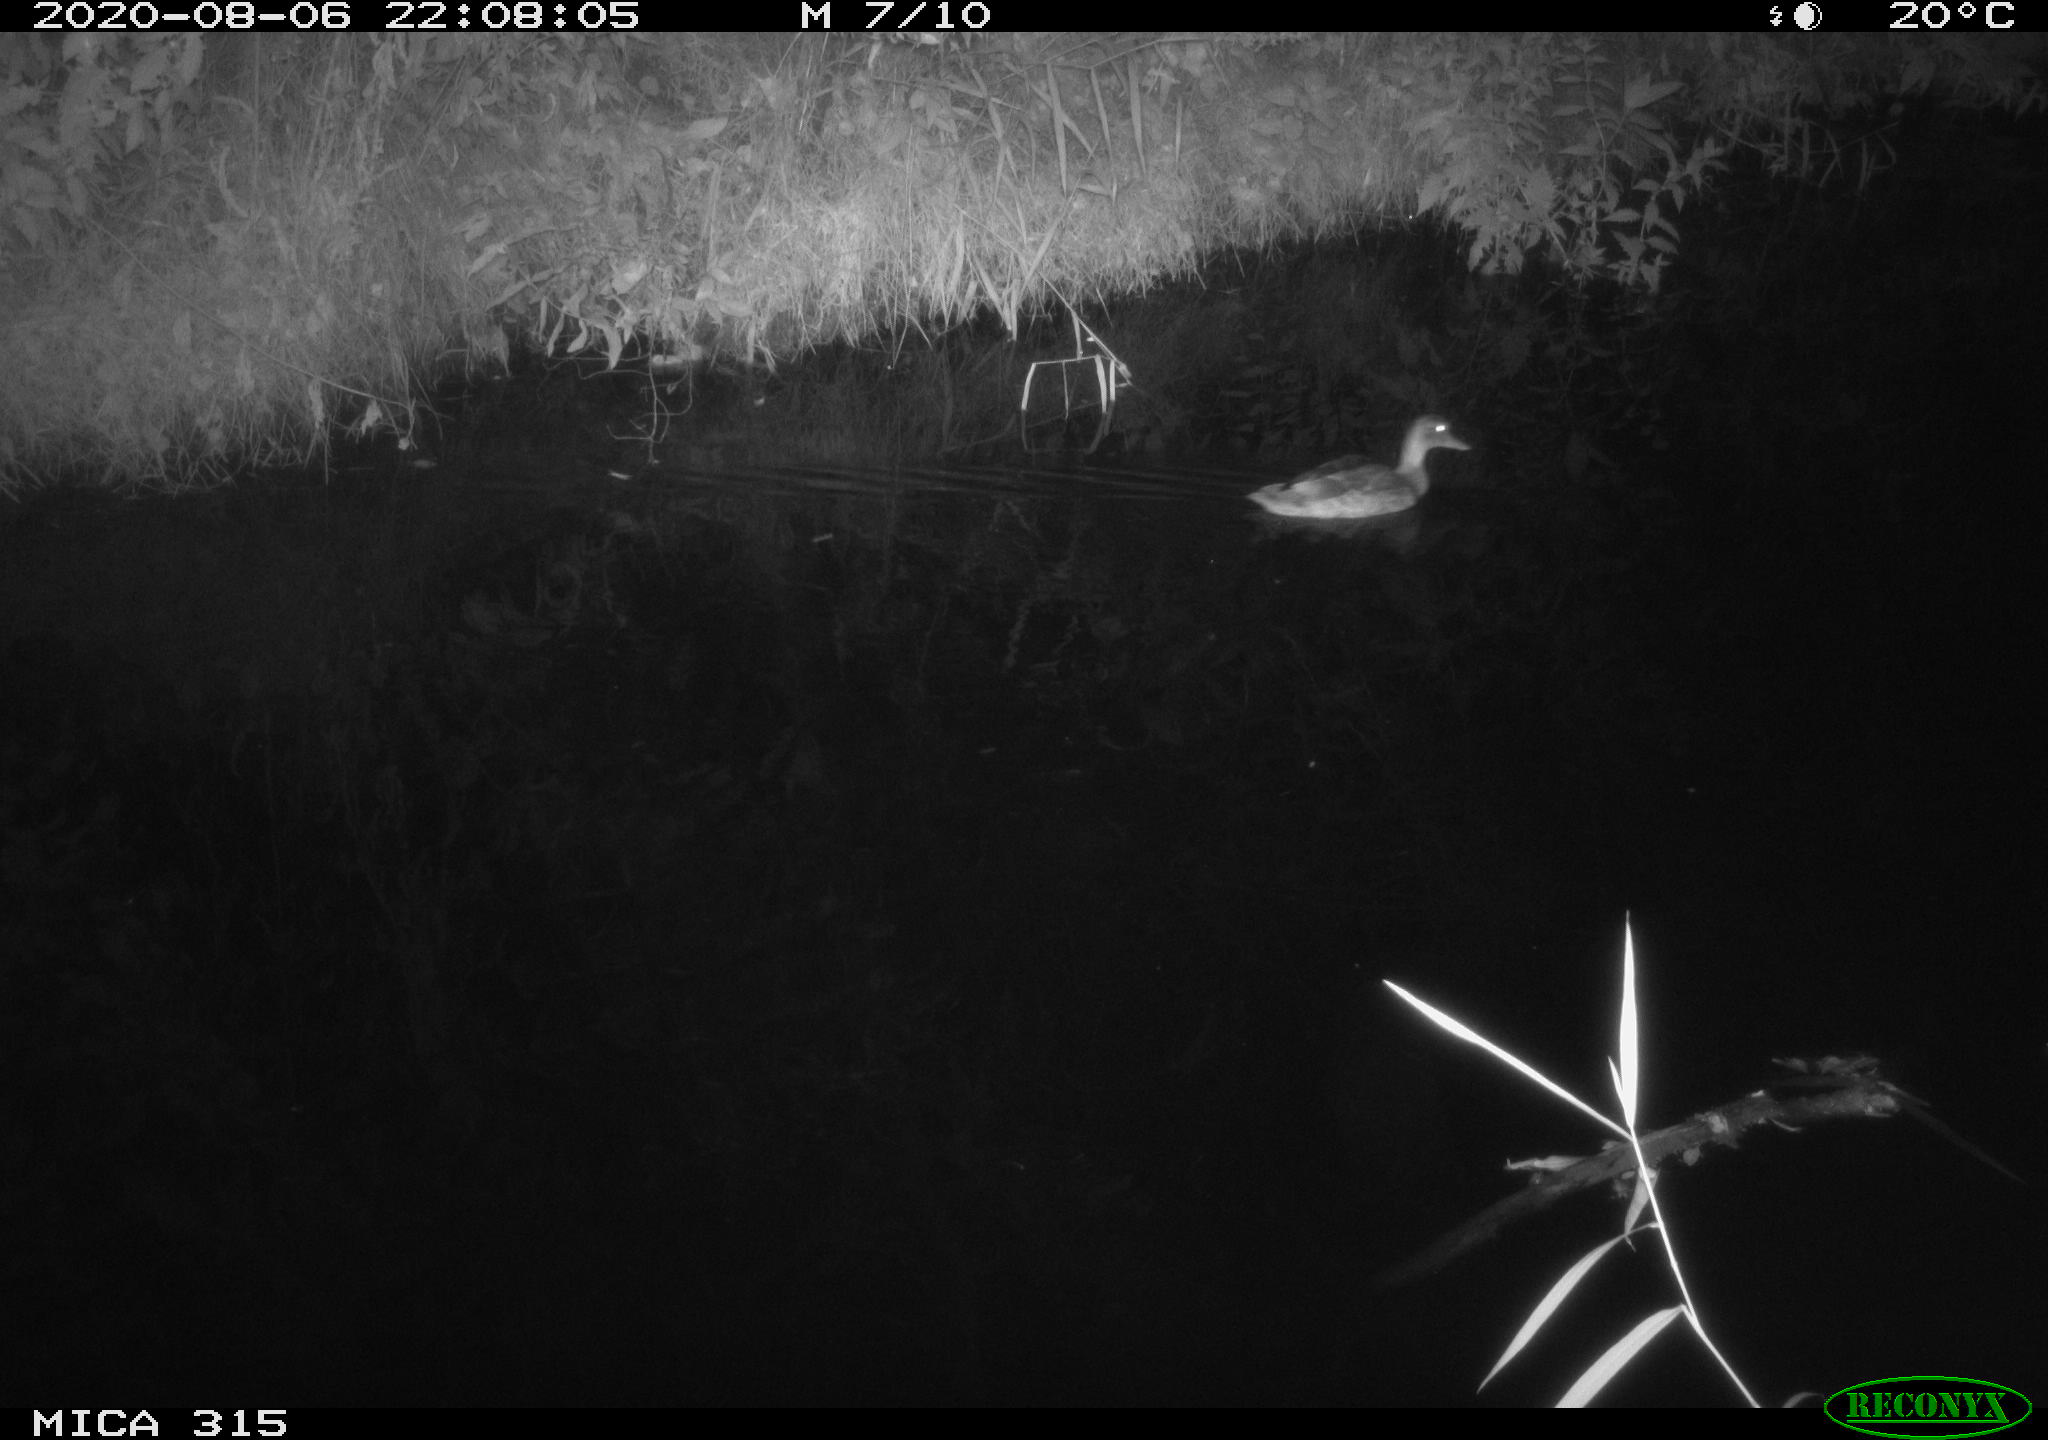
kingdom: Animalia
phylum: Chordata
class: Aves
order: Anseriformes
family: Anatidae
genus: Anas
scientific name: Anas platyrhynchos
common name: Mallard
